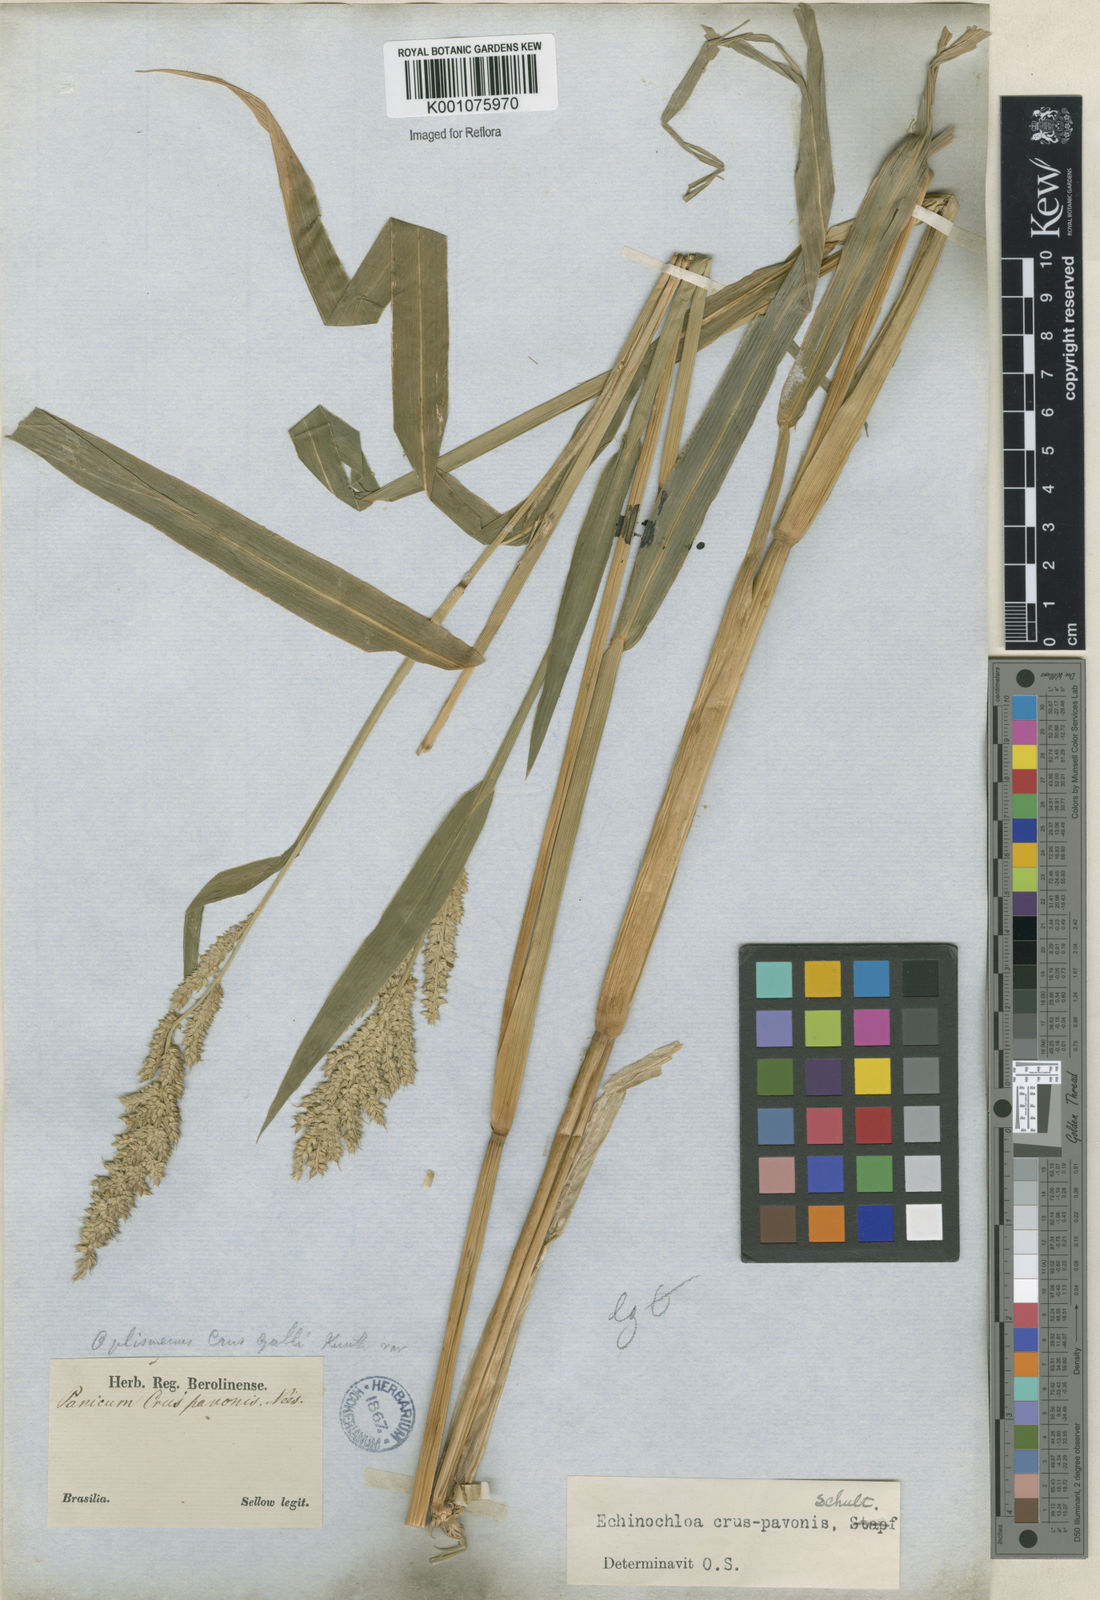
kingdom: Plantae
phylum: Tracheophyta
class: Liliopsida
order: Poales
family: Poaceae
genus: Echinochloa
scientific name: Echinochloa crus-pavonis
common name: Gulf cockspur grass
